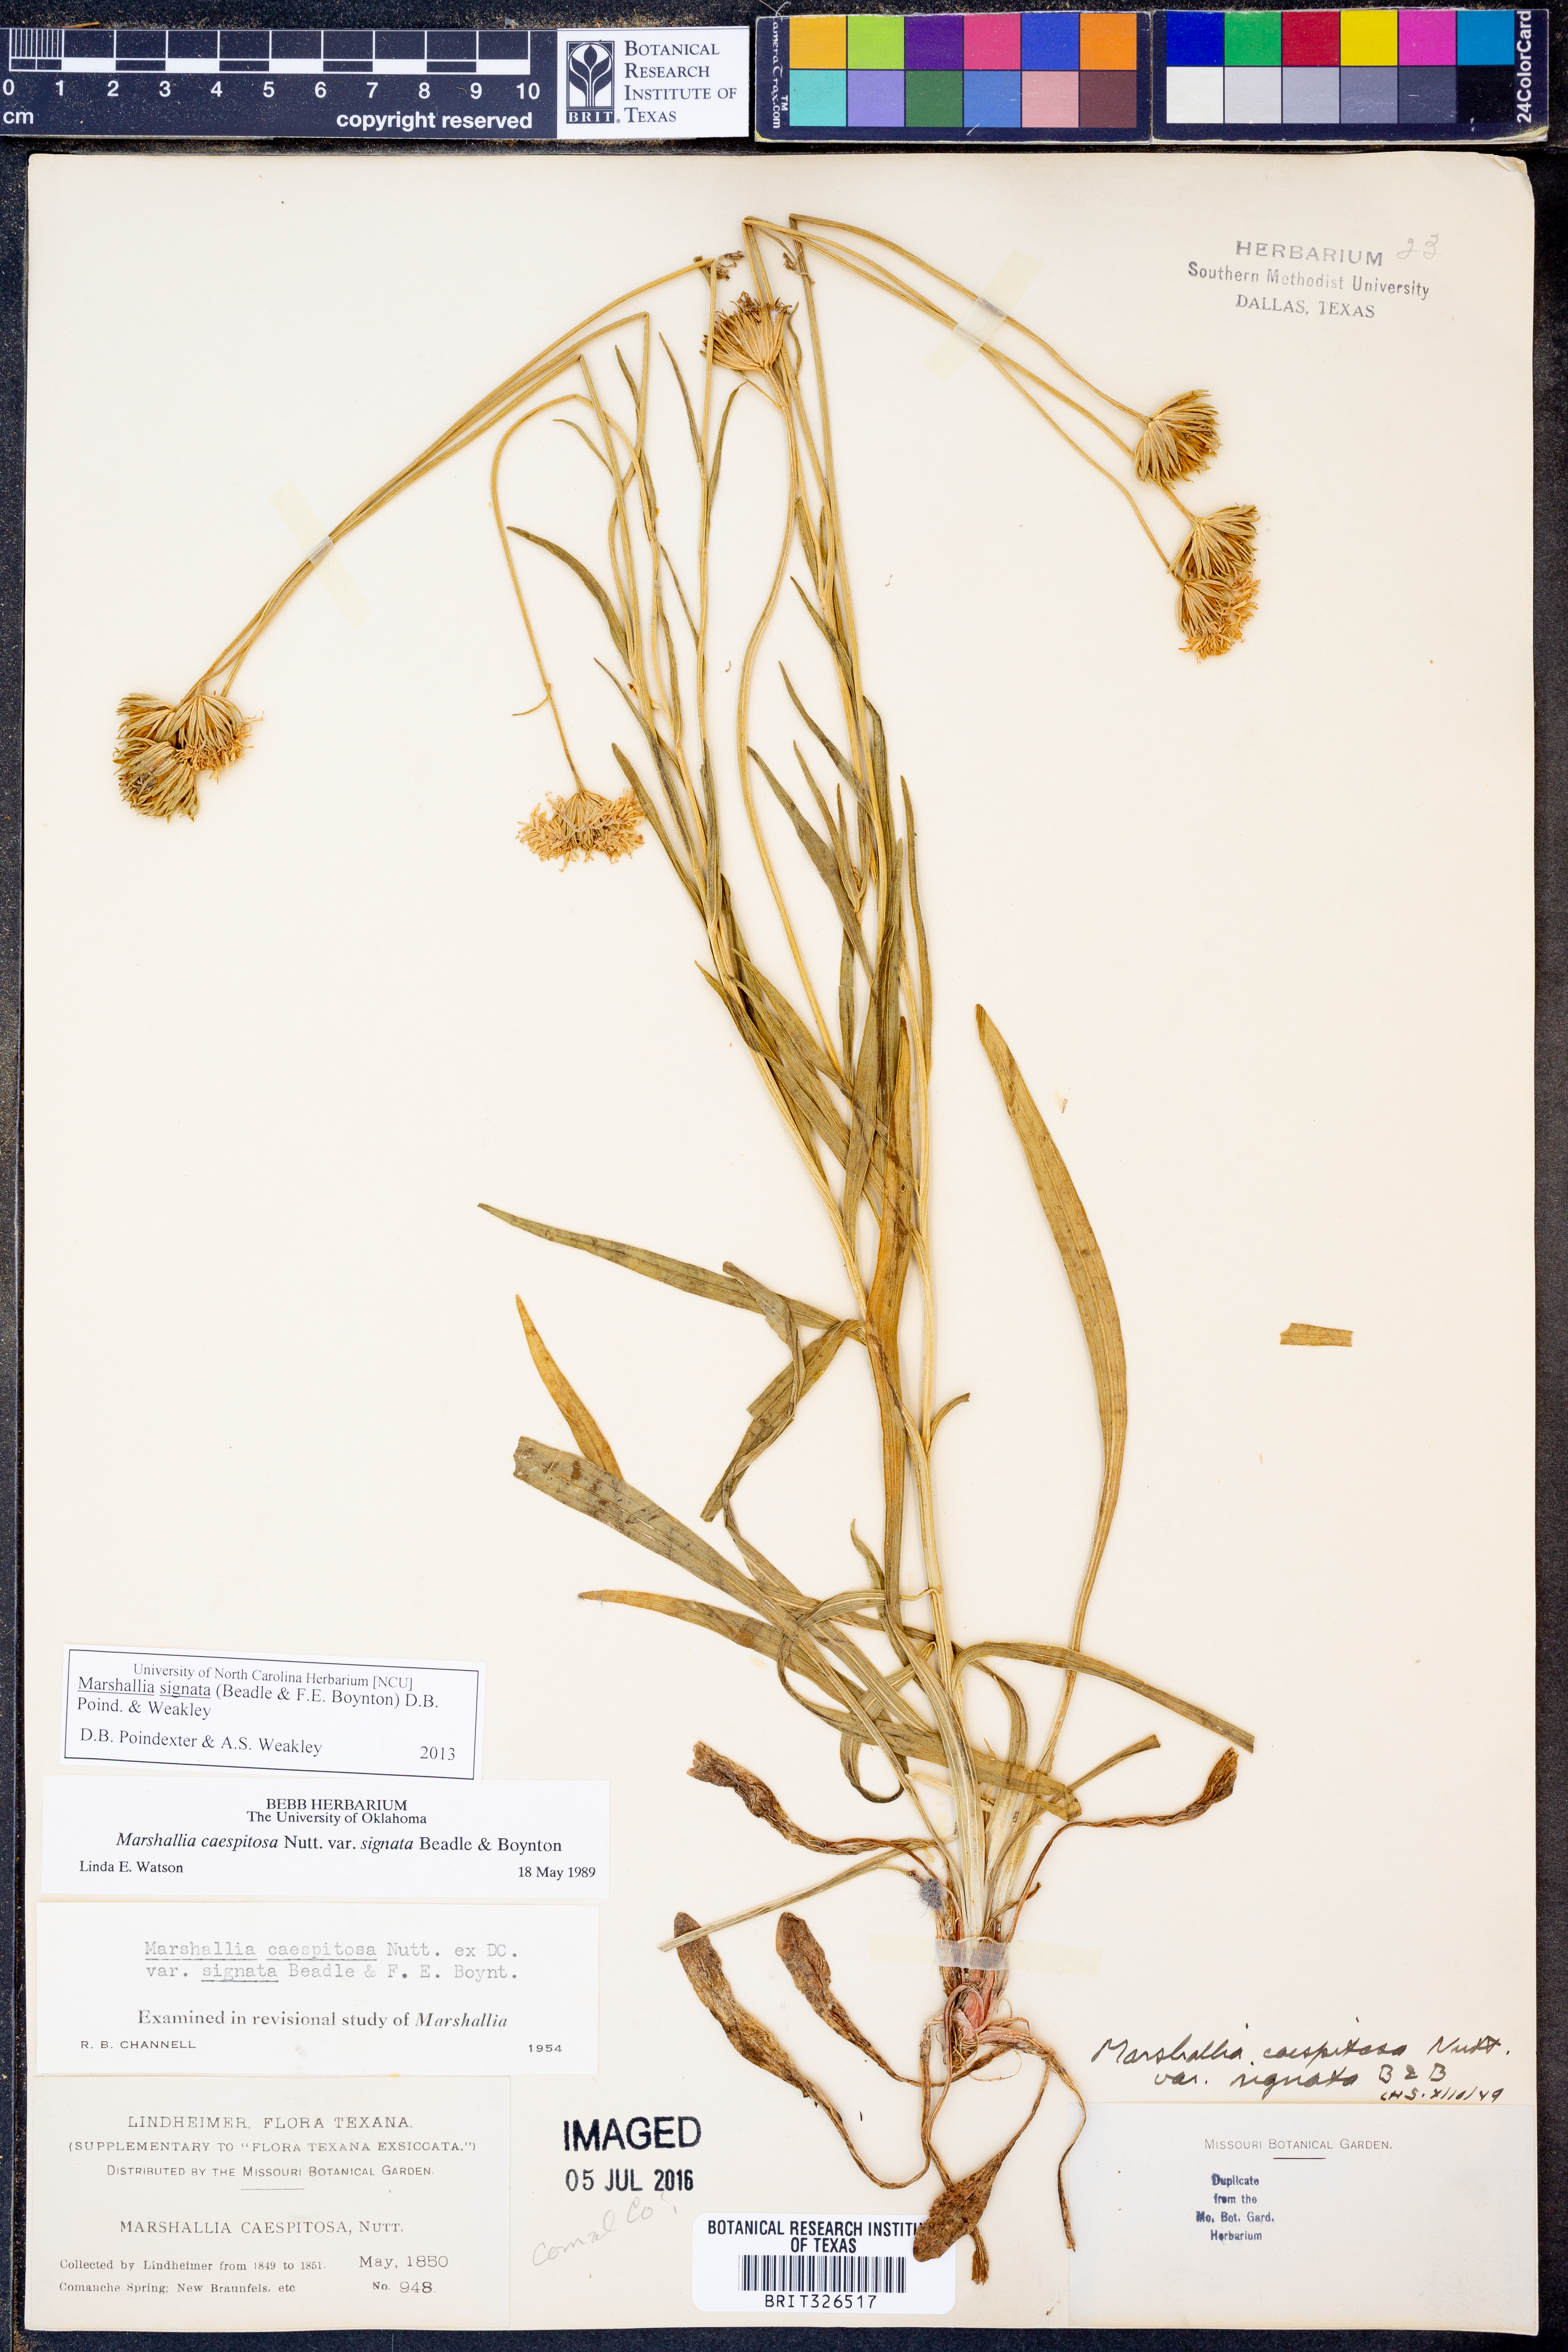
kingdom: Plantae
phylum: Tracheophyta
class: Magnoliopsida
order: Asterales
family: Asteraceae
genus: Marshallia
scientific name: Marshallia
